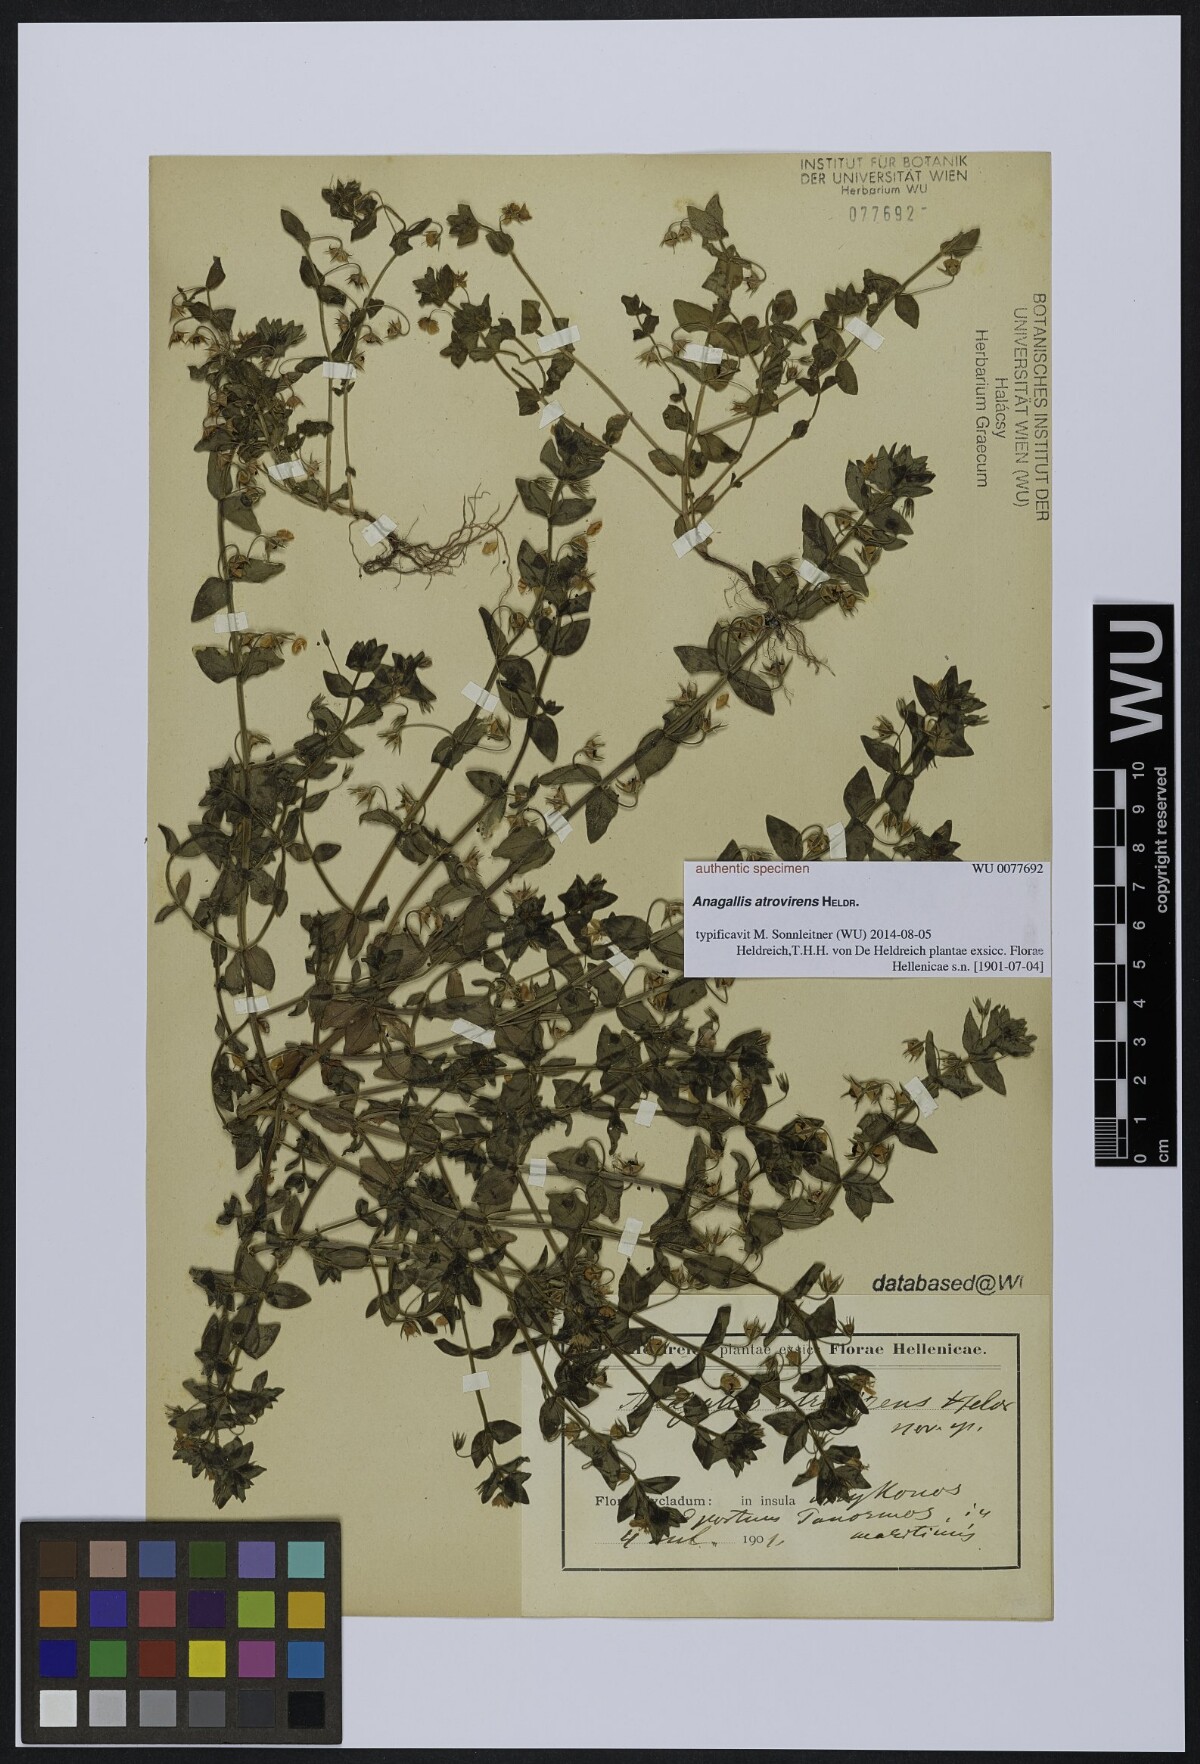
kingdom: Plantae
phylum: Tracheophyta
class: Magnoliopsida
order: Ericales
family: Primulaceae
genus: Lysimachia
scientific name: Lysimachia Anagallis spec
